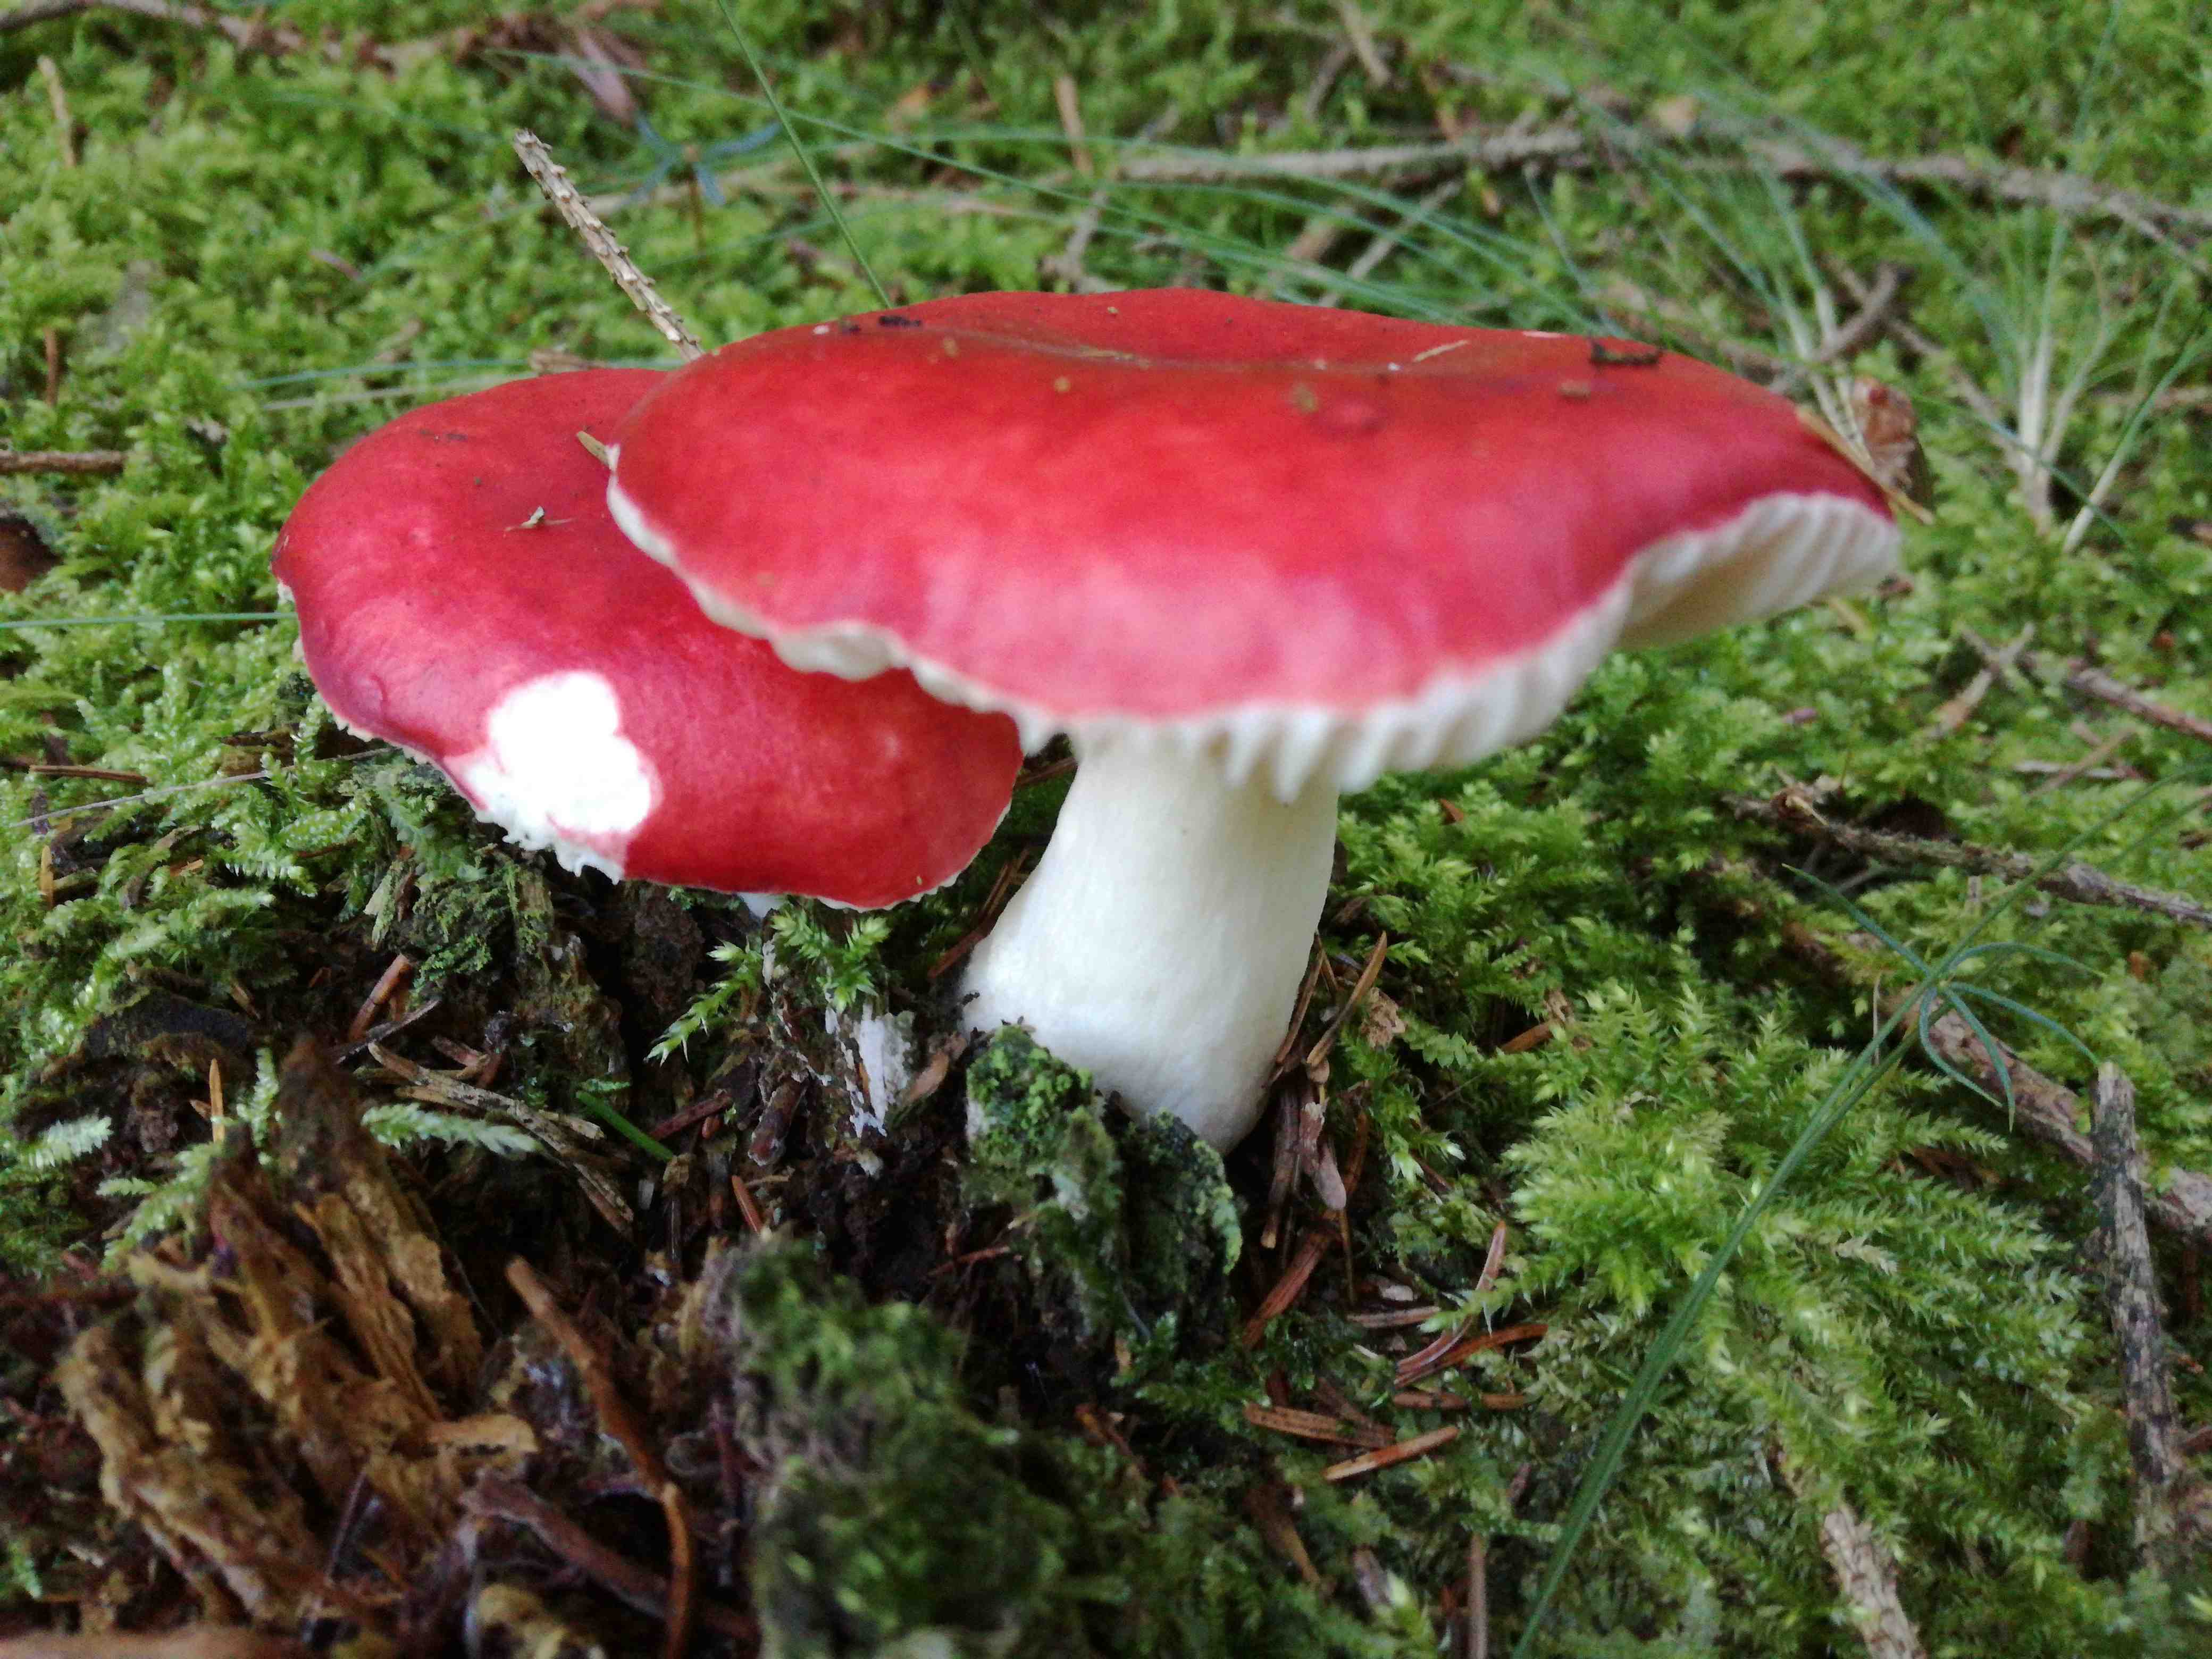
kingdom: Fungi
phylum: Basidiomycota
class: Agaricomycetes
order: Russulales
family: Russulaceae
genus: Russula
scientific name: Russula
